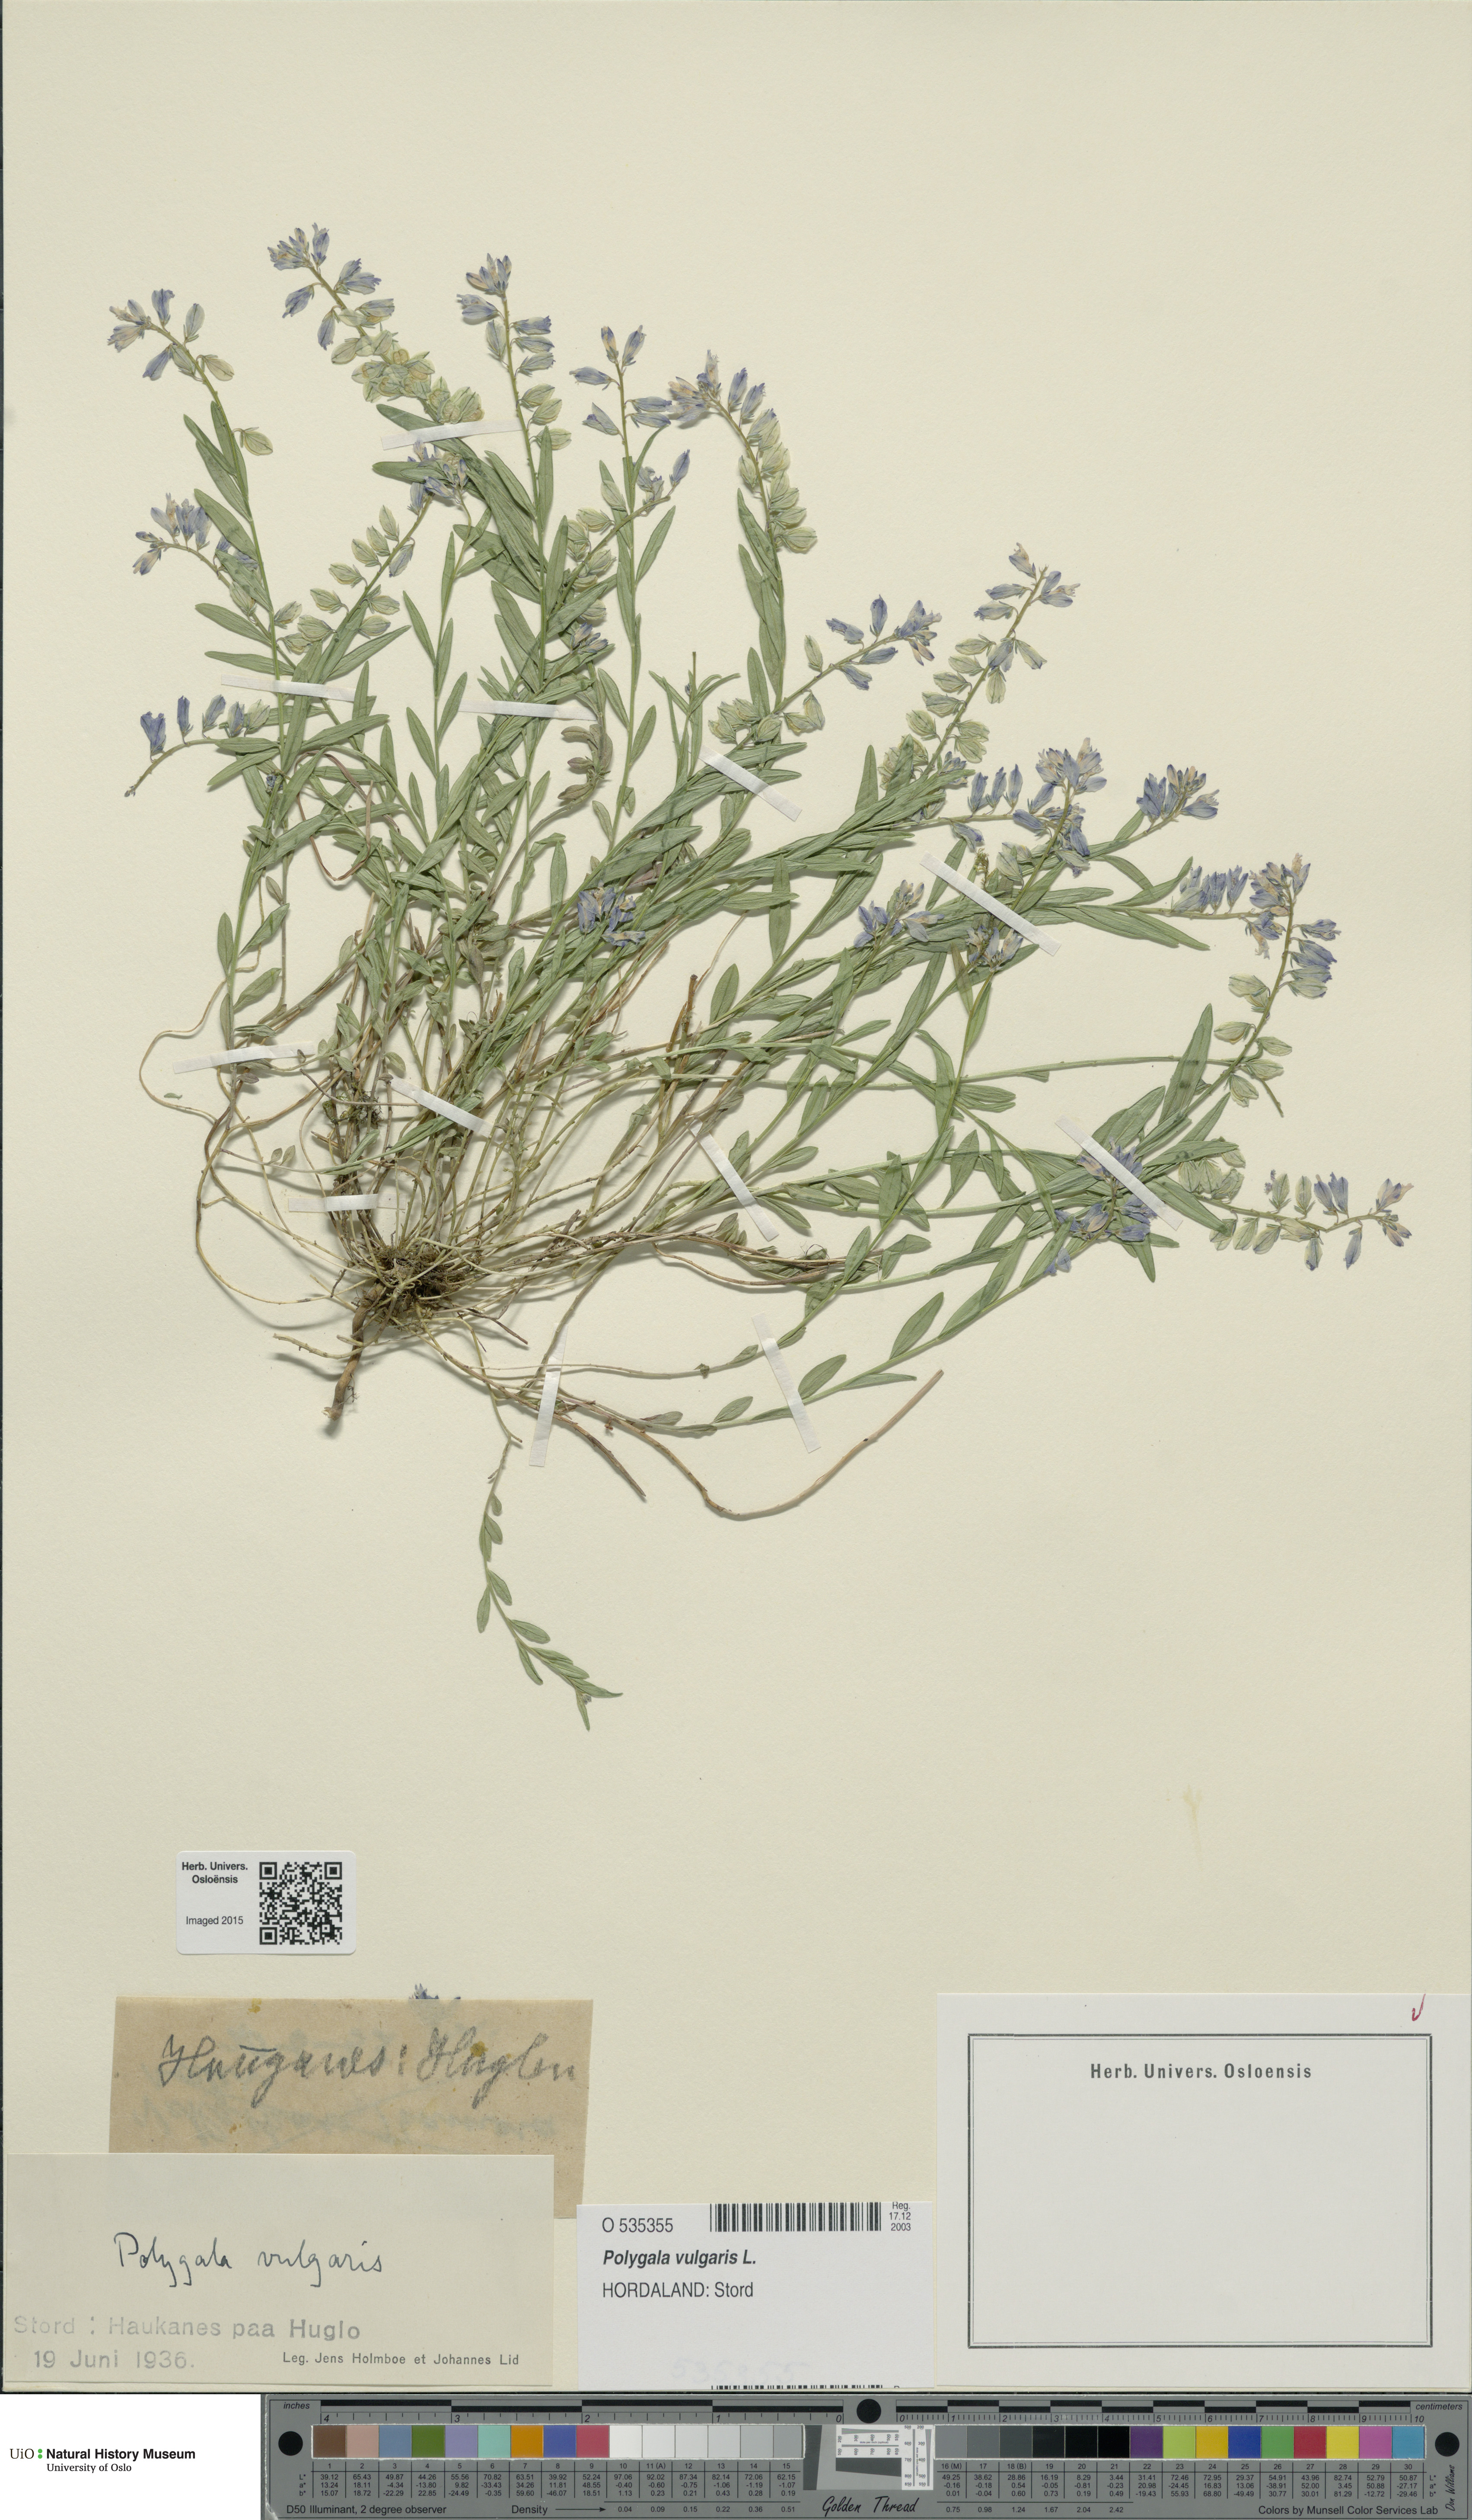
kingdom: Plantae
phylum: Tracheophyta
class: Magnoliopsida
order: Fabales
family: Polygalaceae
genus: Polygala
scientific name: Polygala vulgaris
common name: Common milkwort
